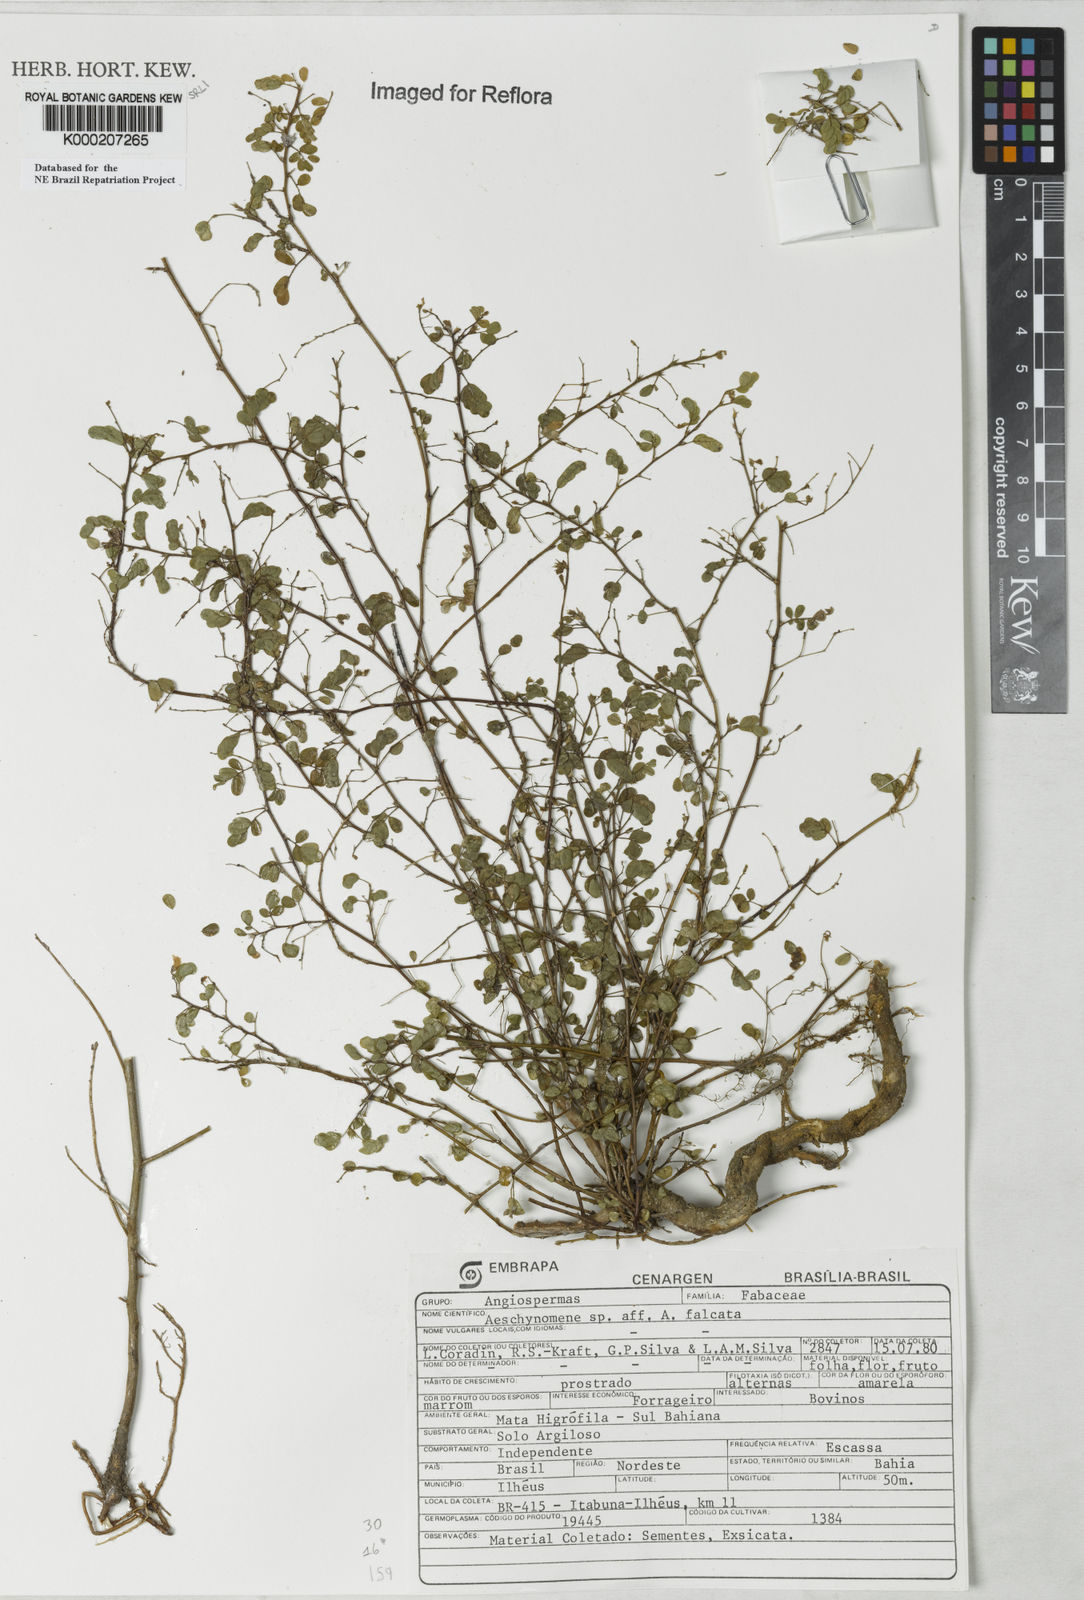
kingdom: Plantae
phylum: Tracheophyta
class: Magnoliopsida
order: Fabales
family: Fabaceae
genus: Ctenodon
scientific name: Ctenodon falcatus
